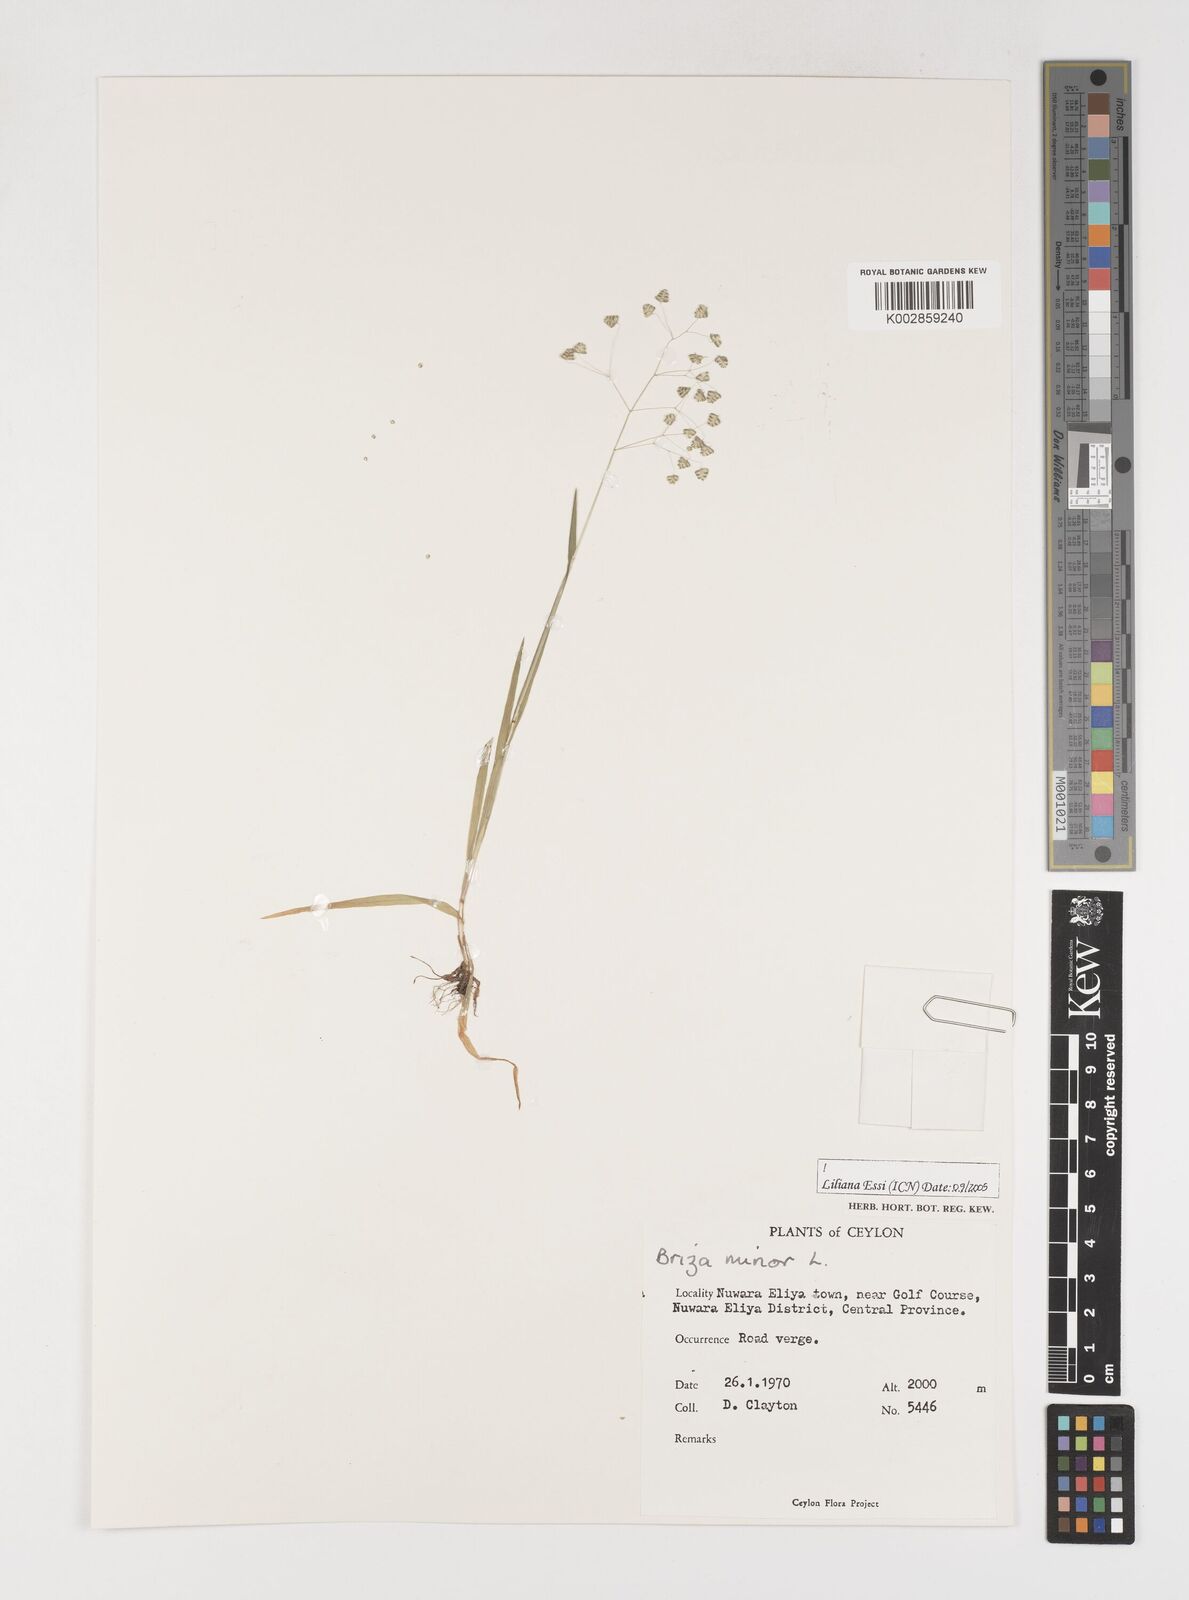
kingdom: Plantae
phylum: Tracheophyta
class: Liliopsida
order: Poales
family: Poaceae
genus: Briza
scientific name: Briza minor
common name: Lesser quaking-grass
